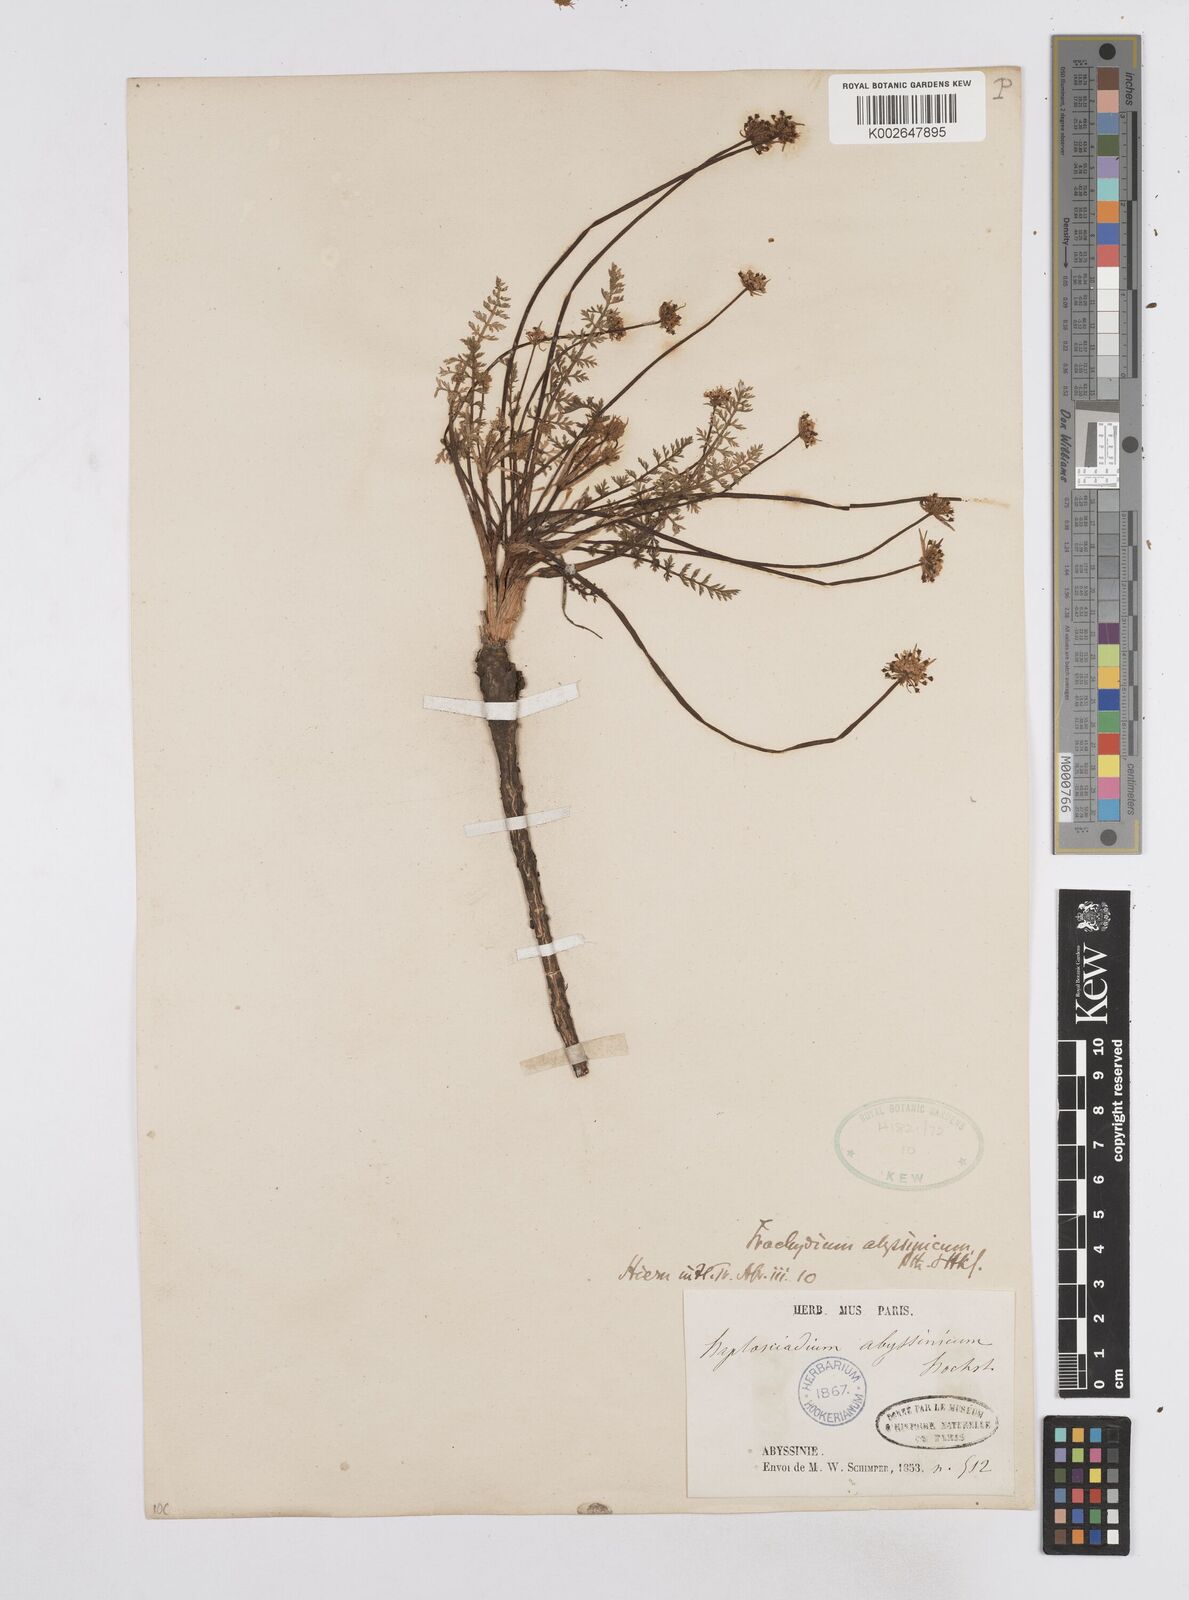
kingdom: Plantae
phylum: Tracheophyta
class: Magnoliopsida
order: Apiales
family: Apiaceae
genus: Haplosciadium
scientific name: Haplosciadium abyssinicum
